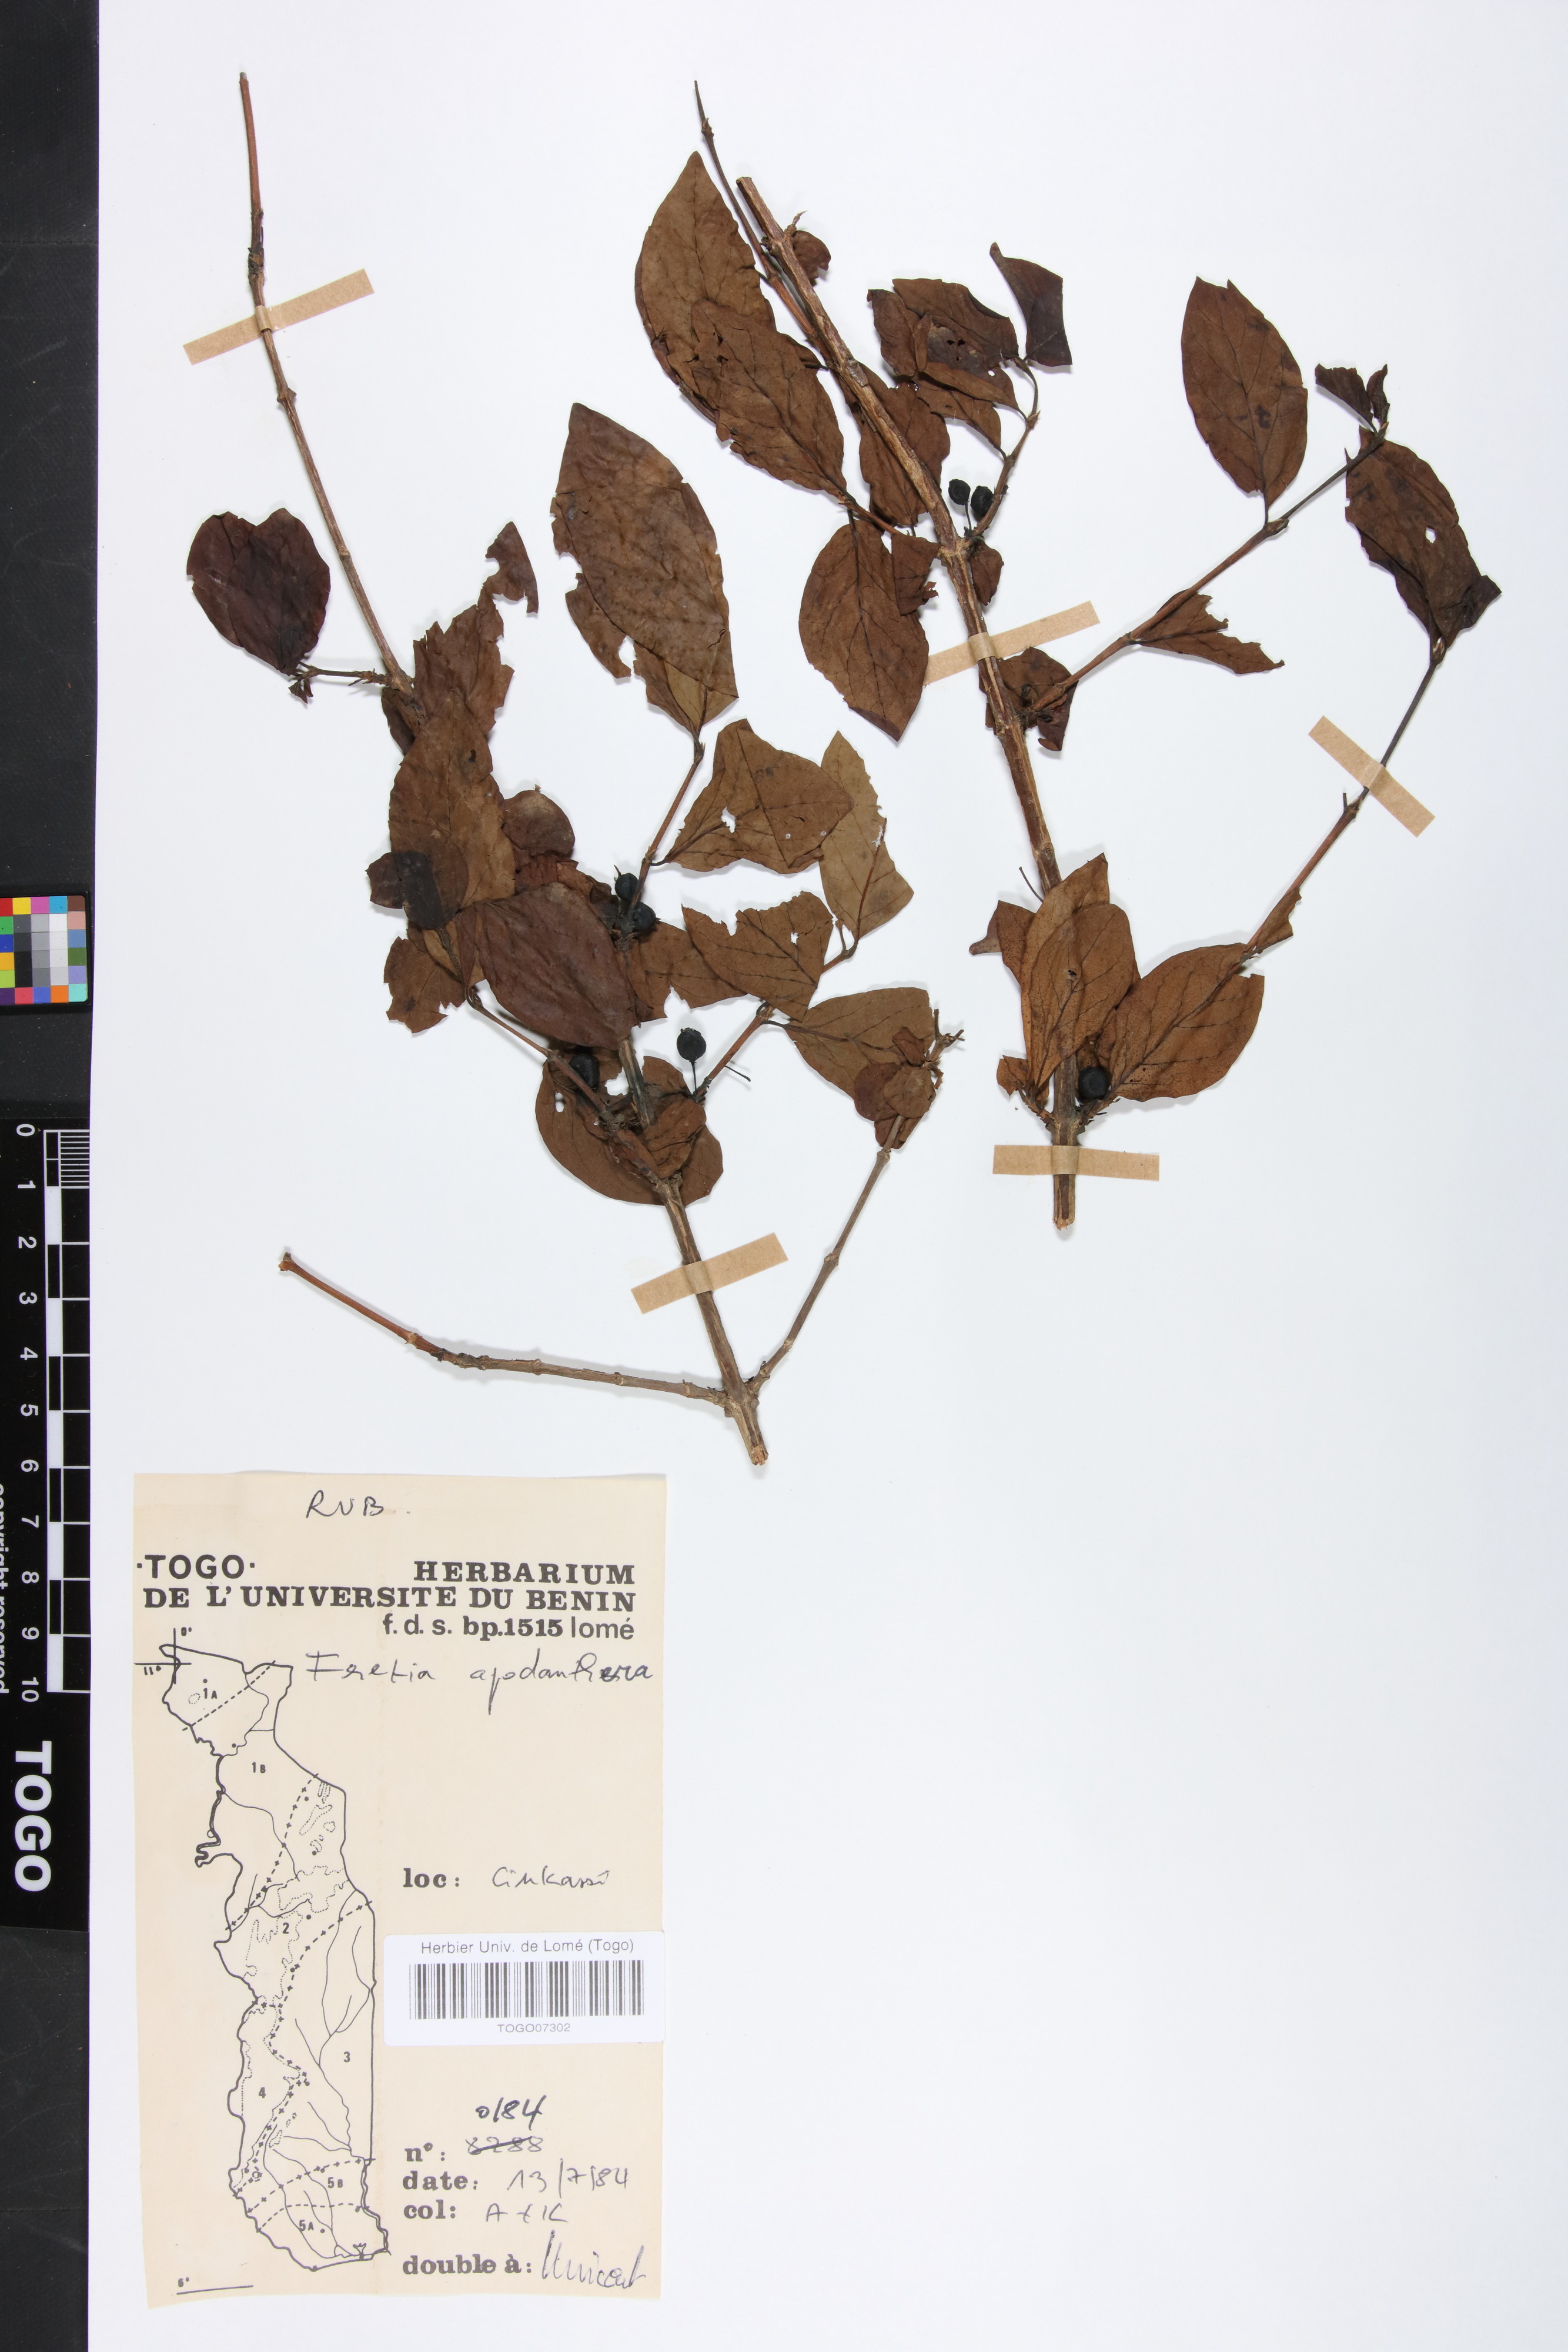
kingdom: Plantae
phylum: Tracheophyta
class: Magnoliopsida
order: Gentianales
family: Rubiaceae
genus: Feretia
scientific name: Feretia apodanthera
